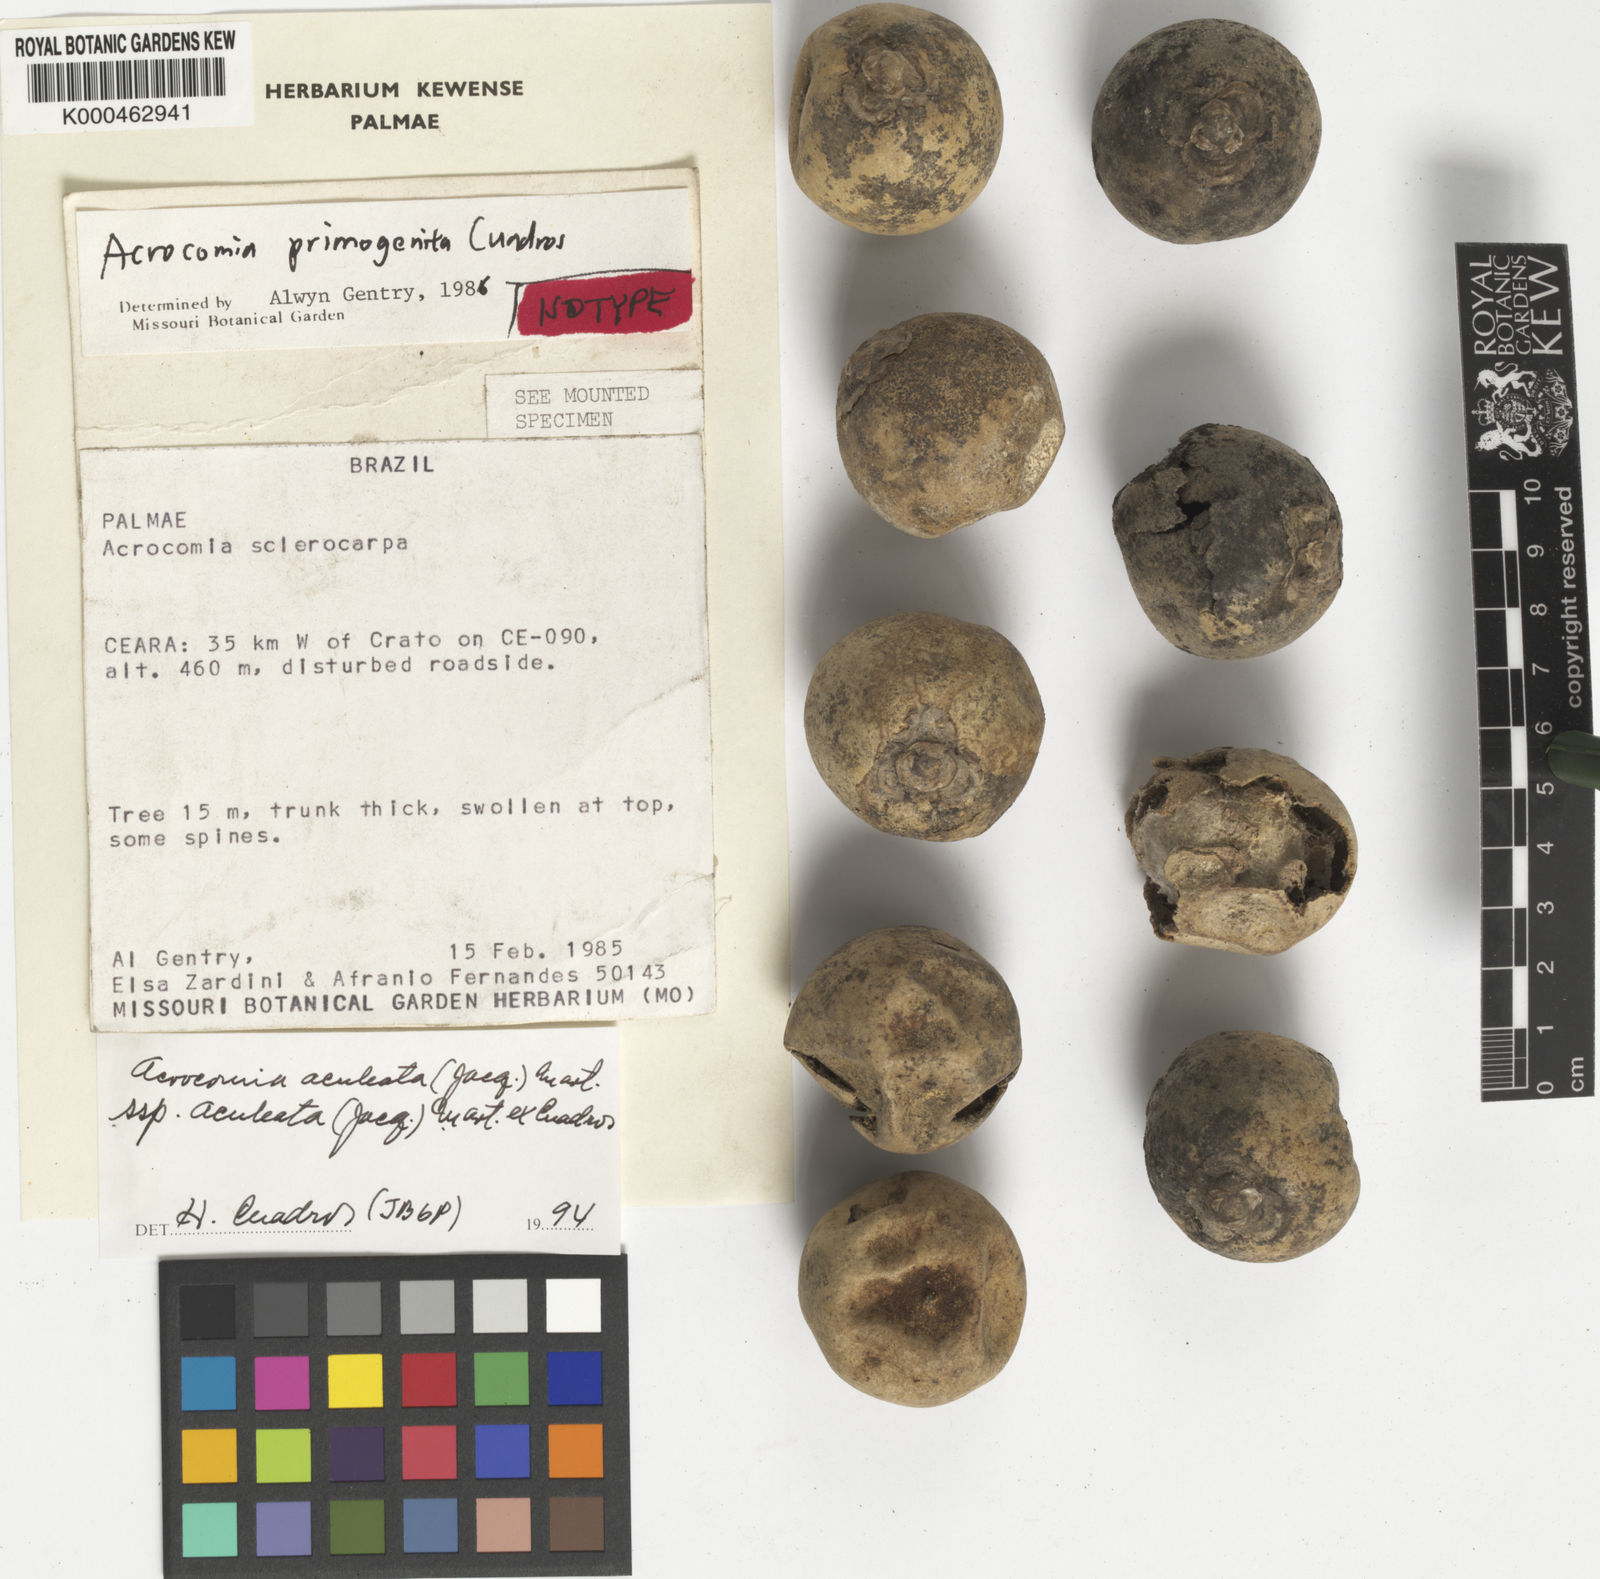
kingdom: Plantae
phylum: Tracheophyta
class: Liliopsida
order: Arecales
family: Arecaceae
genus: Acrocomia
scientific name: Acrocomia
